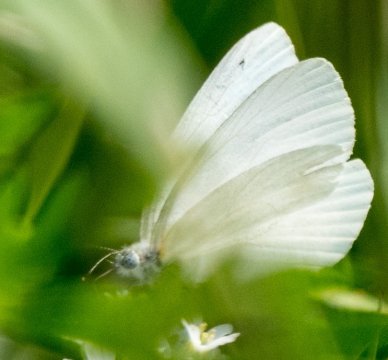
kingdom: Animalia
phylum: Arthropoda
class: Insecta
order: Lepidoptera
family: Pieridae
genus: Pieris
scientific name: Pieris oleracea
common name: Mustard White
